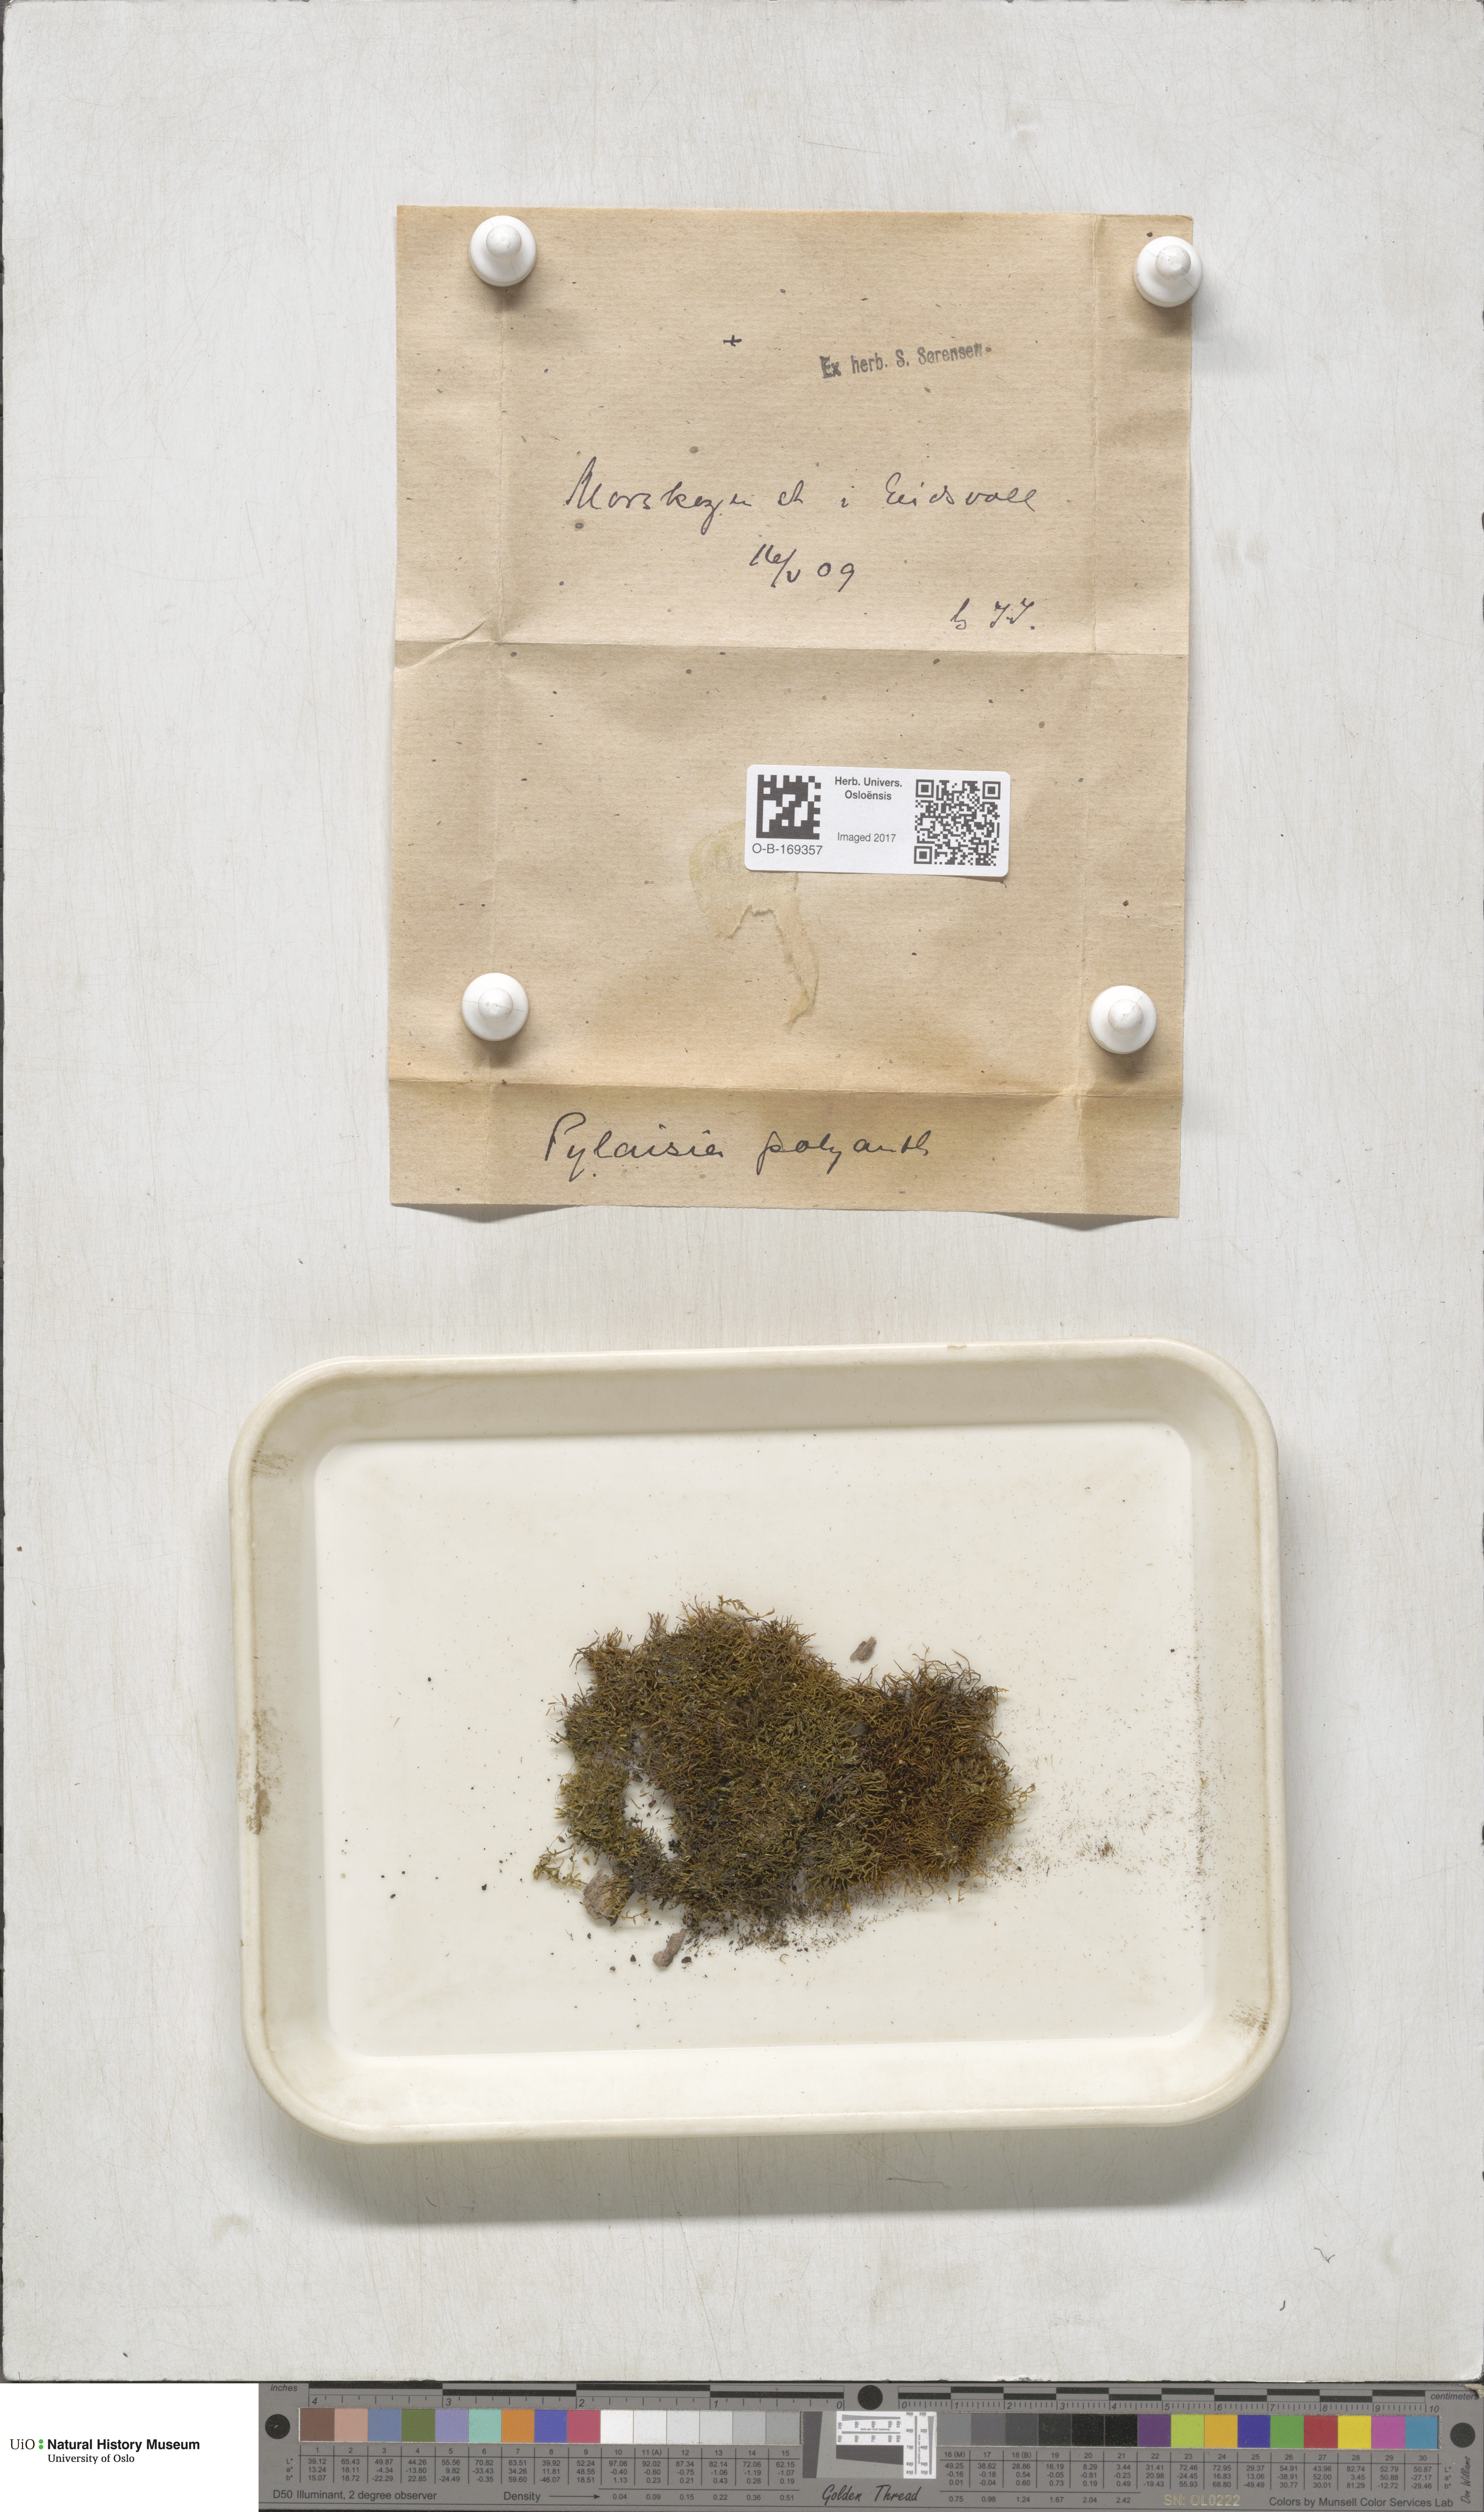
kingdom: Plantae
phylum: Bryophyta
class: Bryopsida
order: Hypnales
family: Pylaisiaceae
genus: Pylaisia
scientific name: Pylaisia polyantha
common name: Many-flowered leskea
